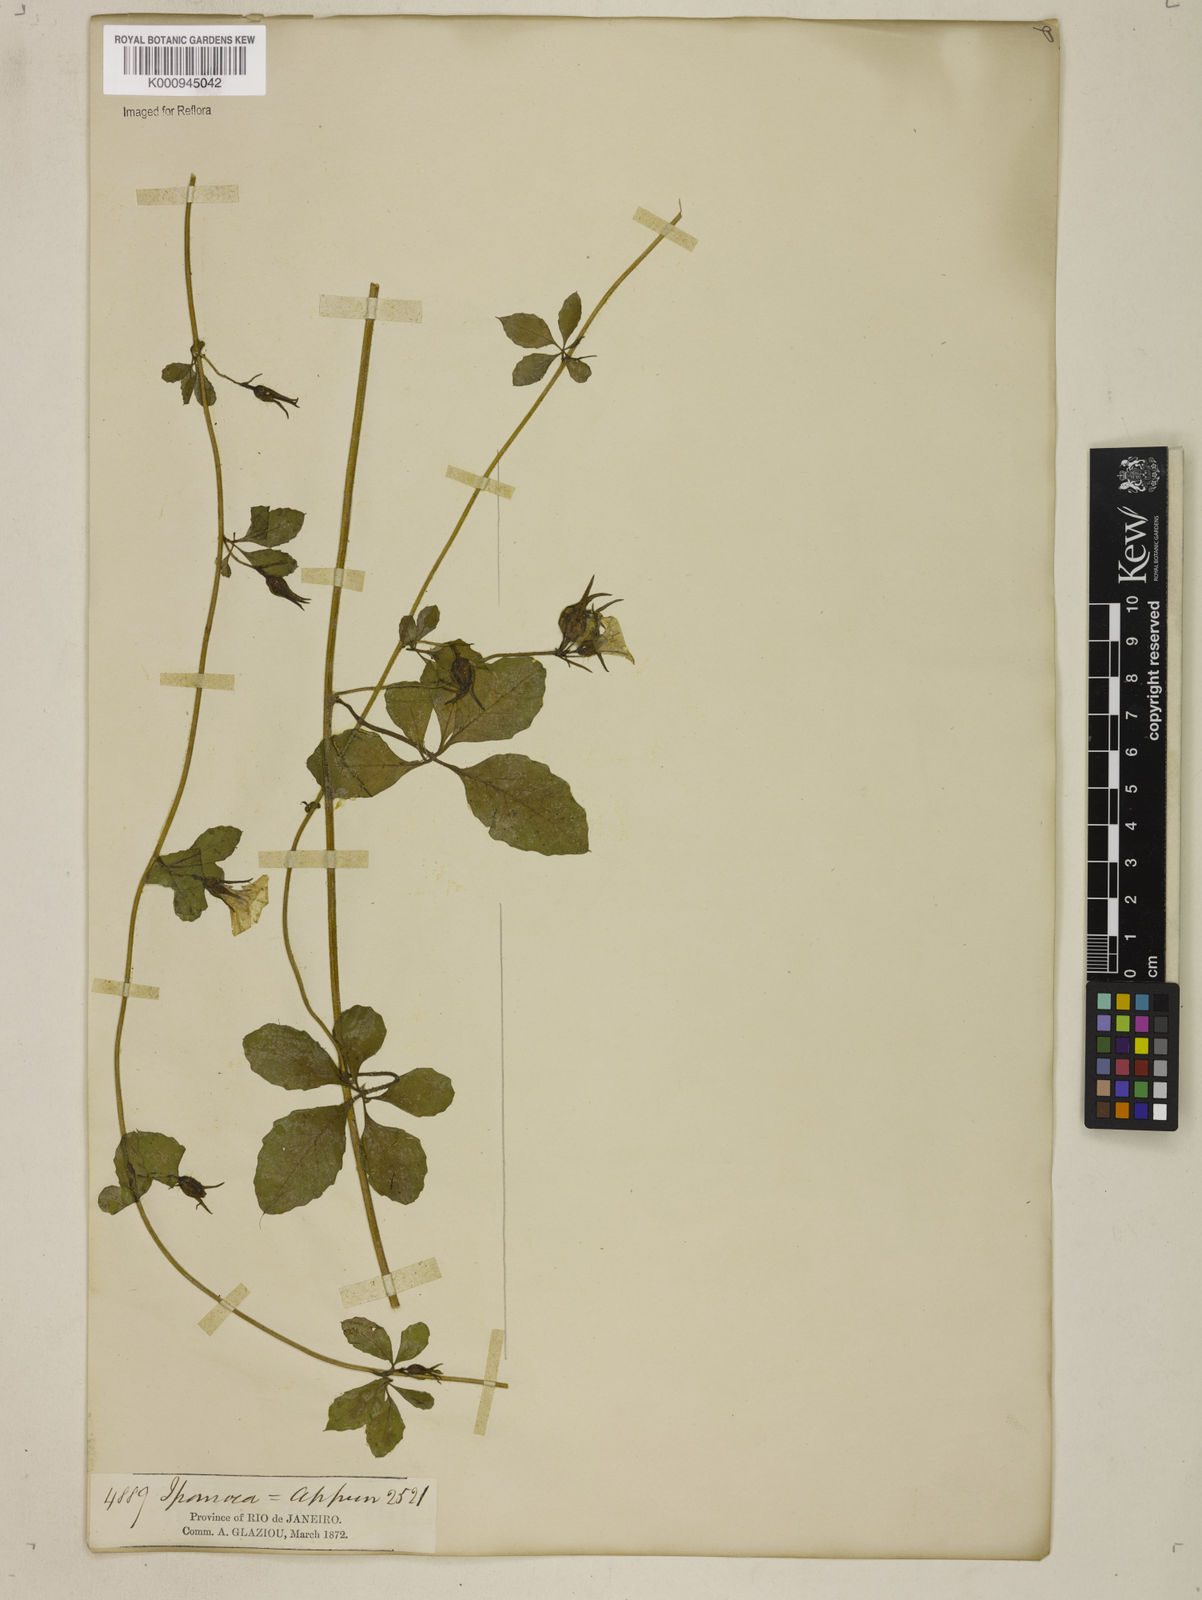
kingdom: Plantae
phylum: Tracheophyta
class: Magnoliopsida
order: Solanales
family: Convolvulaceae
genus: Distimake
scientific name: Distimake cissoides
